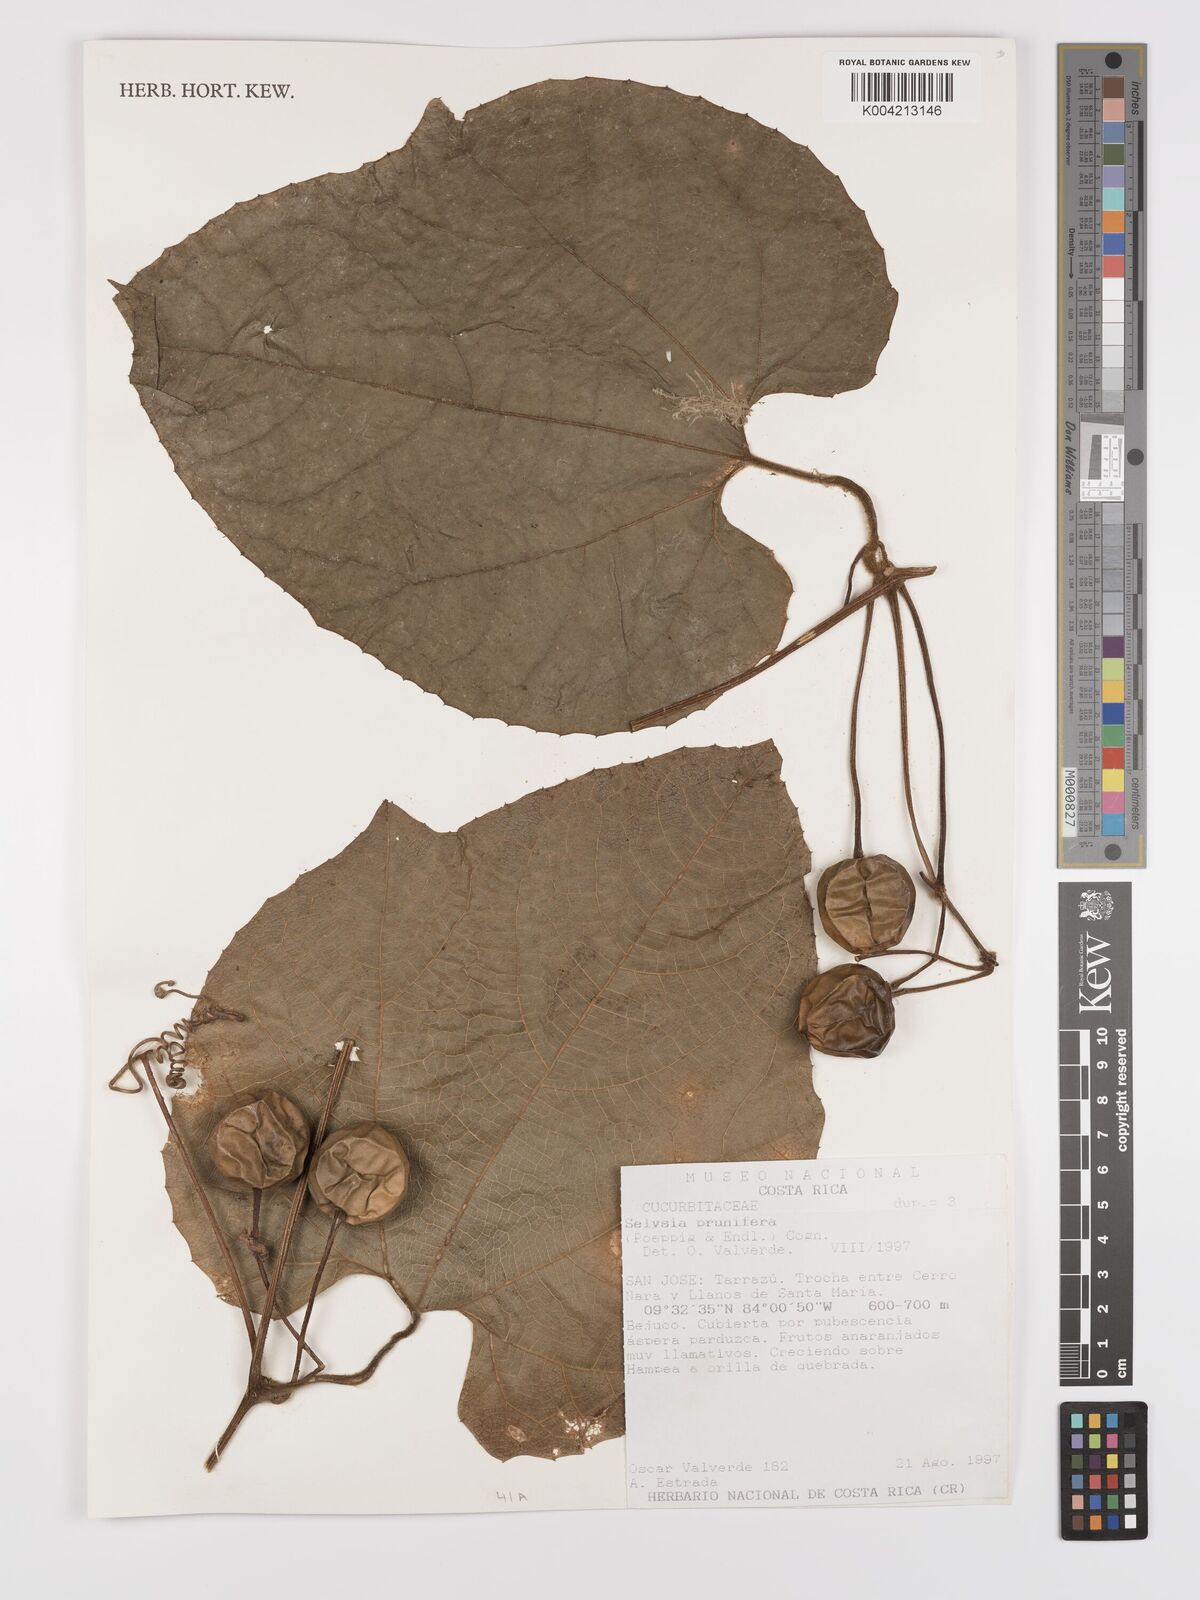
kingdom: Plantae
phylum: Tracheophyta
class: Magnoliopsida
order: Cucurbitales
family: Cucurbitaceae
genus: Cayaponia
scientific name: Cayaponia prunifera
